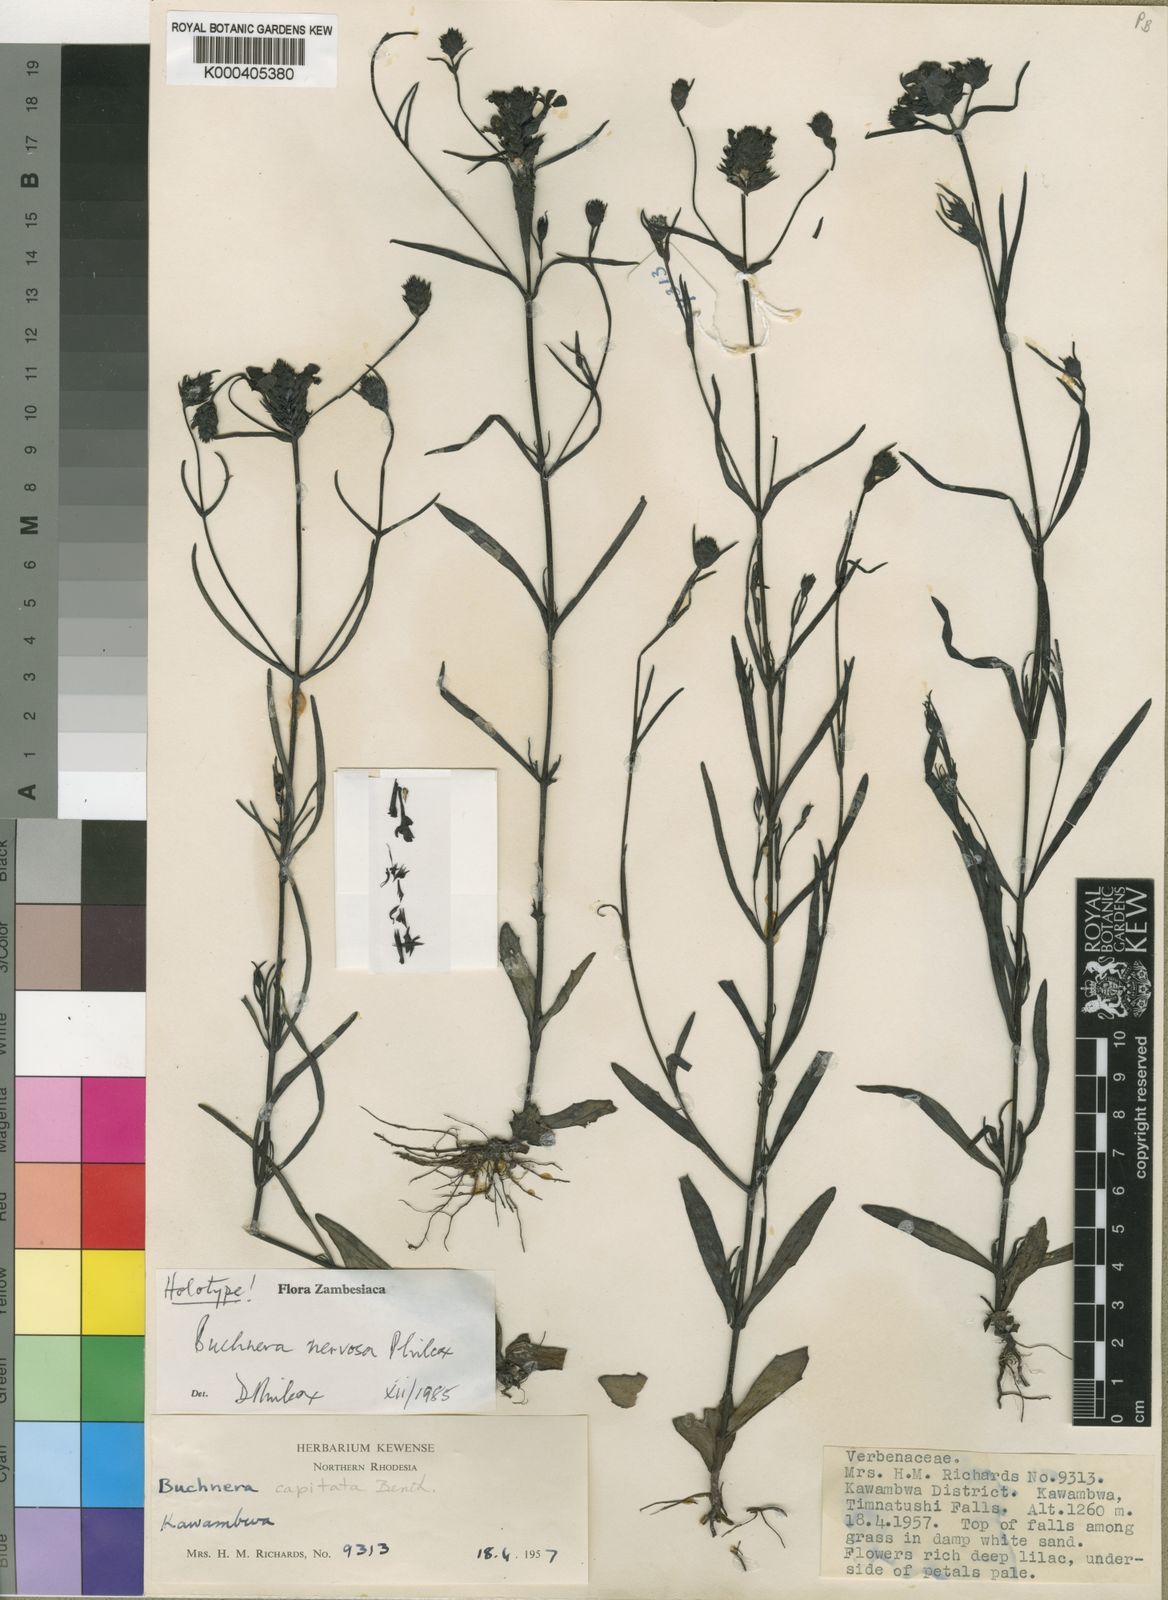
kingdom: Plantae
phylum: Tracheophyta
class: Magnoliopsida
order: Lamiales
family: Orobanchaceae
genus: Buchnera
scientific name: Buchnera nervosa
